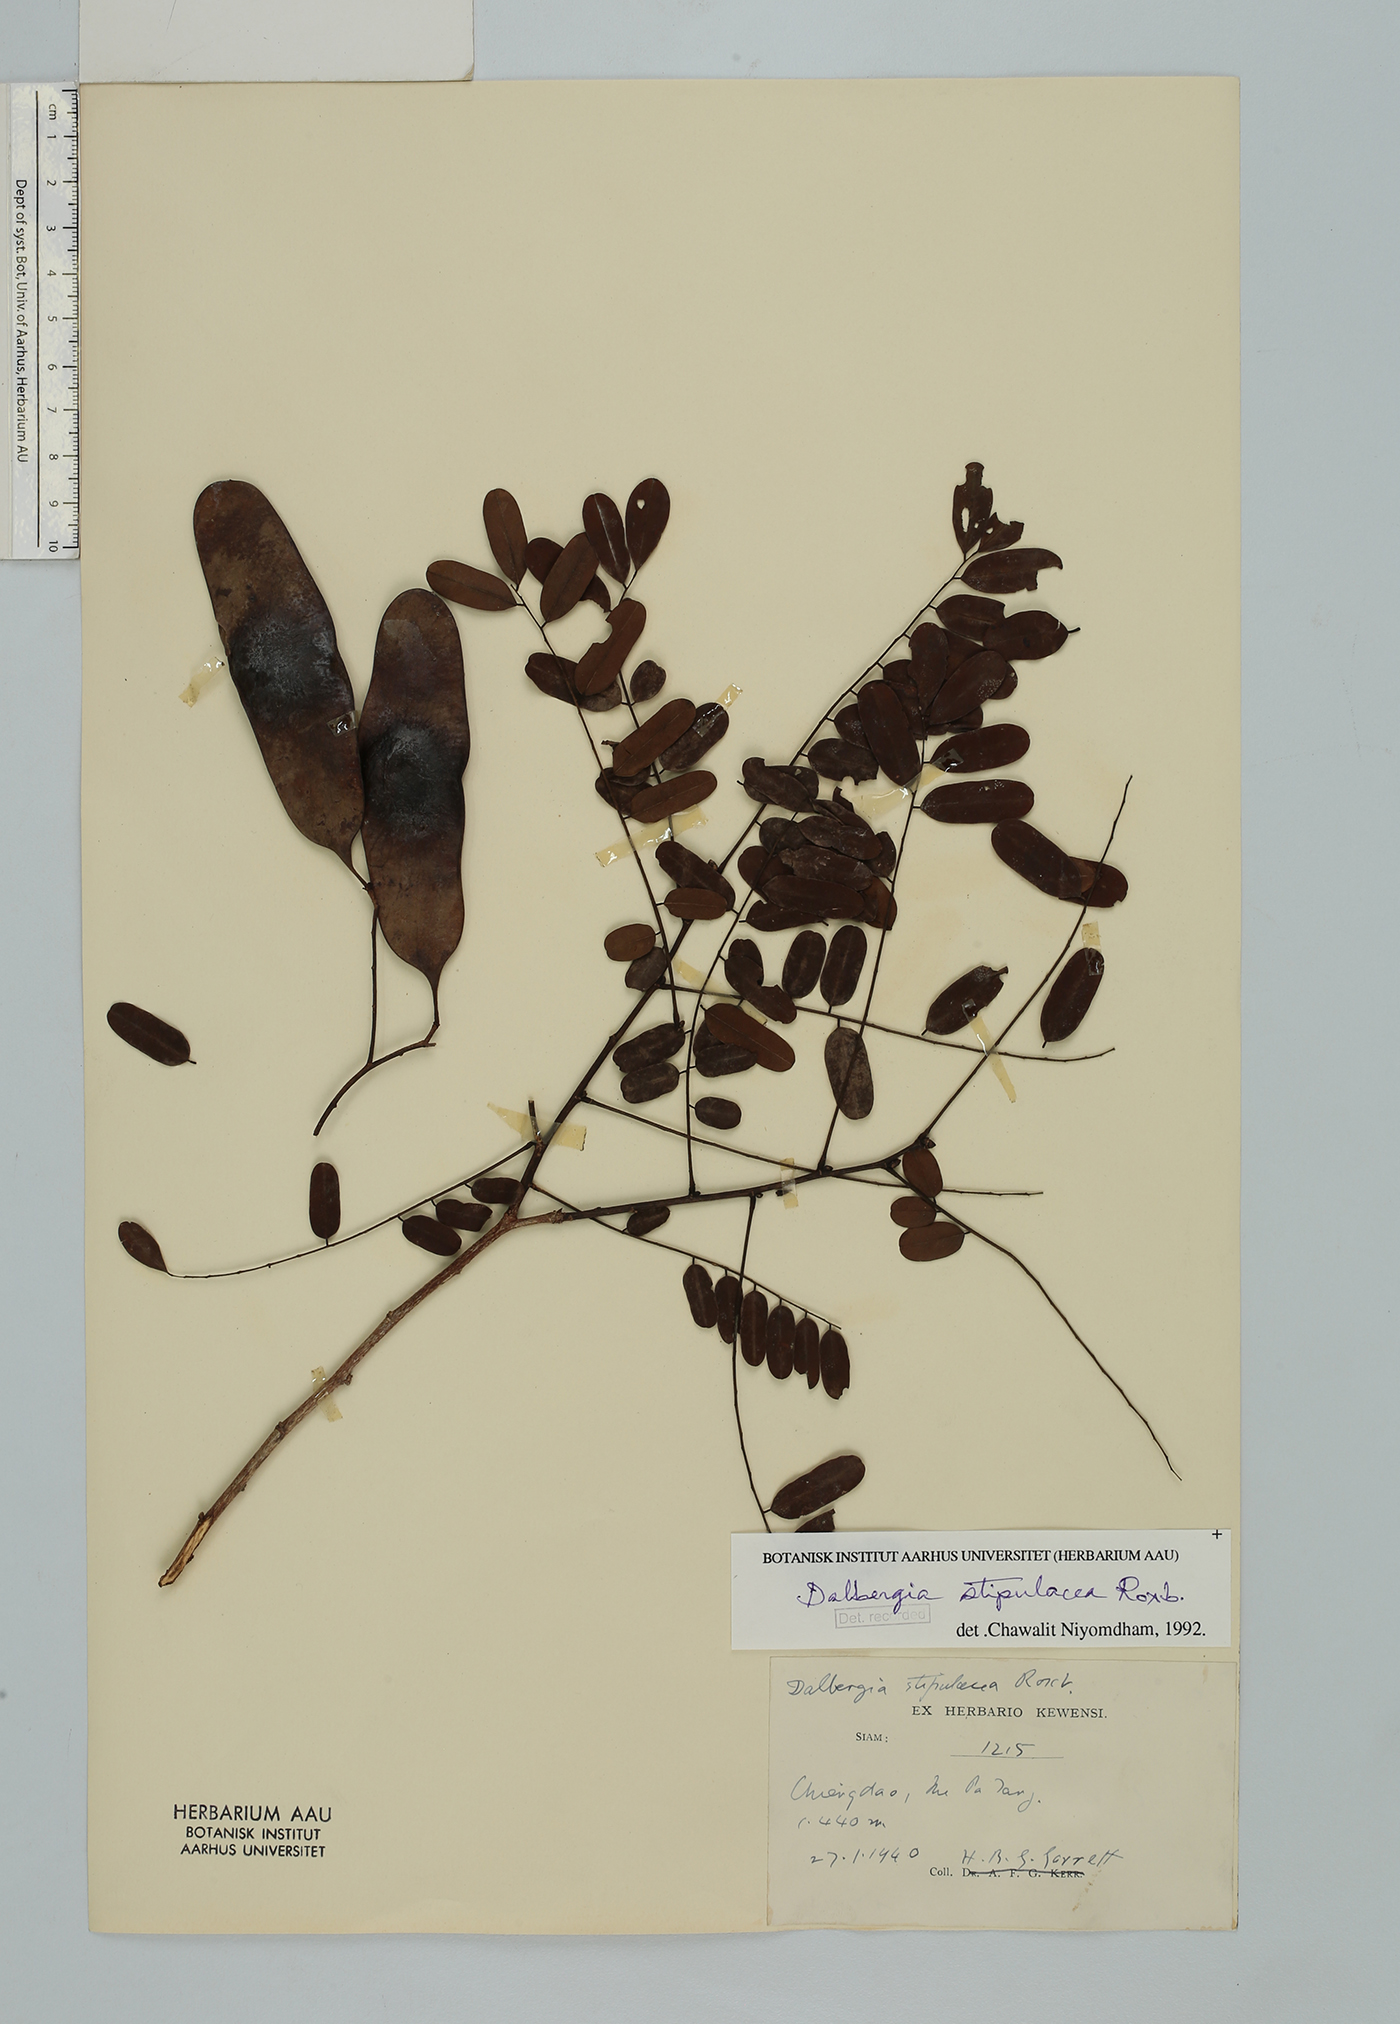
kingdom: Plantae
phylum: Tracheophyta
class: Magnoliopsida
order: Fabales
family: Fabaceae
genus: Dalbergia
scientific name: Dalbergia stipulacea
